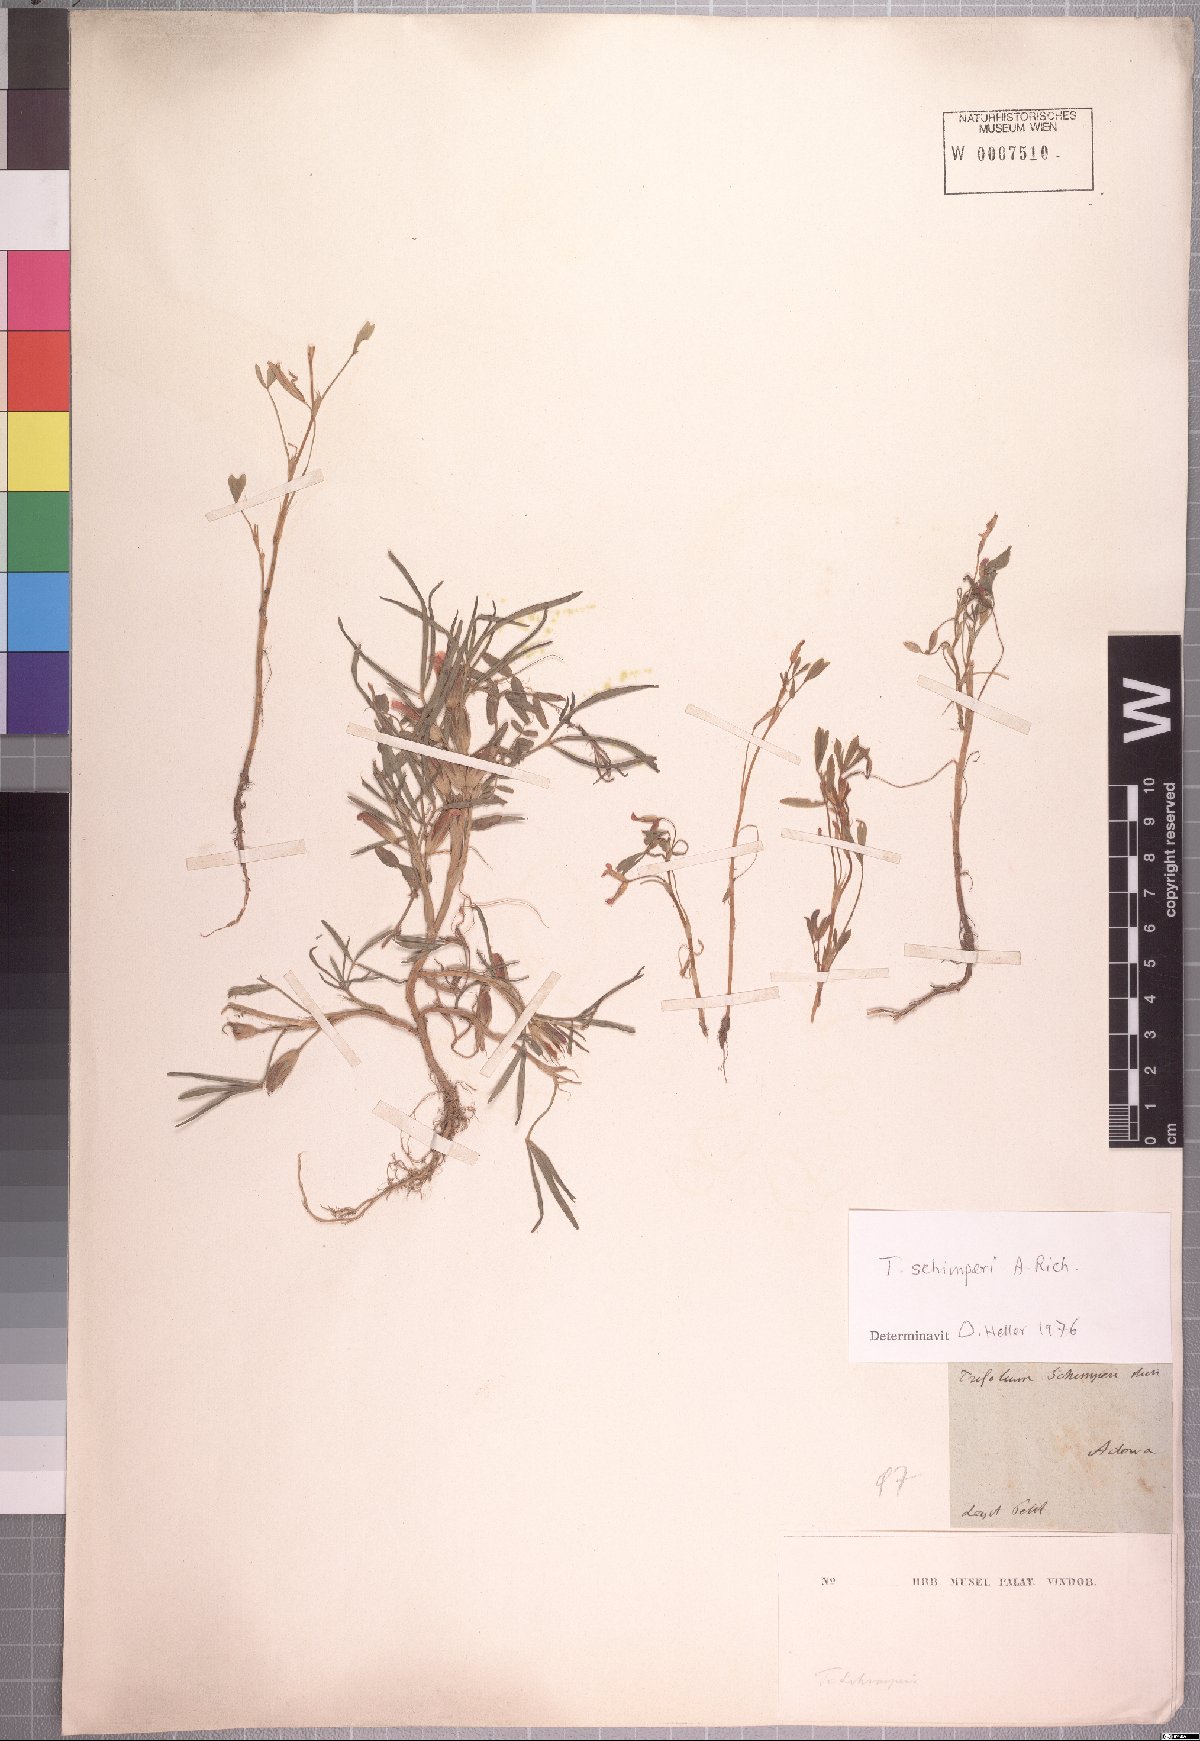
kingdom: Plantae
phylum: Tracheophyta
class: Magnoliopsida
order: Fabales
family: Fabaceae
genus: Trifolium
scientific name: Trifolium schimperi
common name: Schimper's clover
